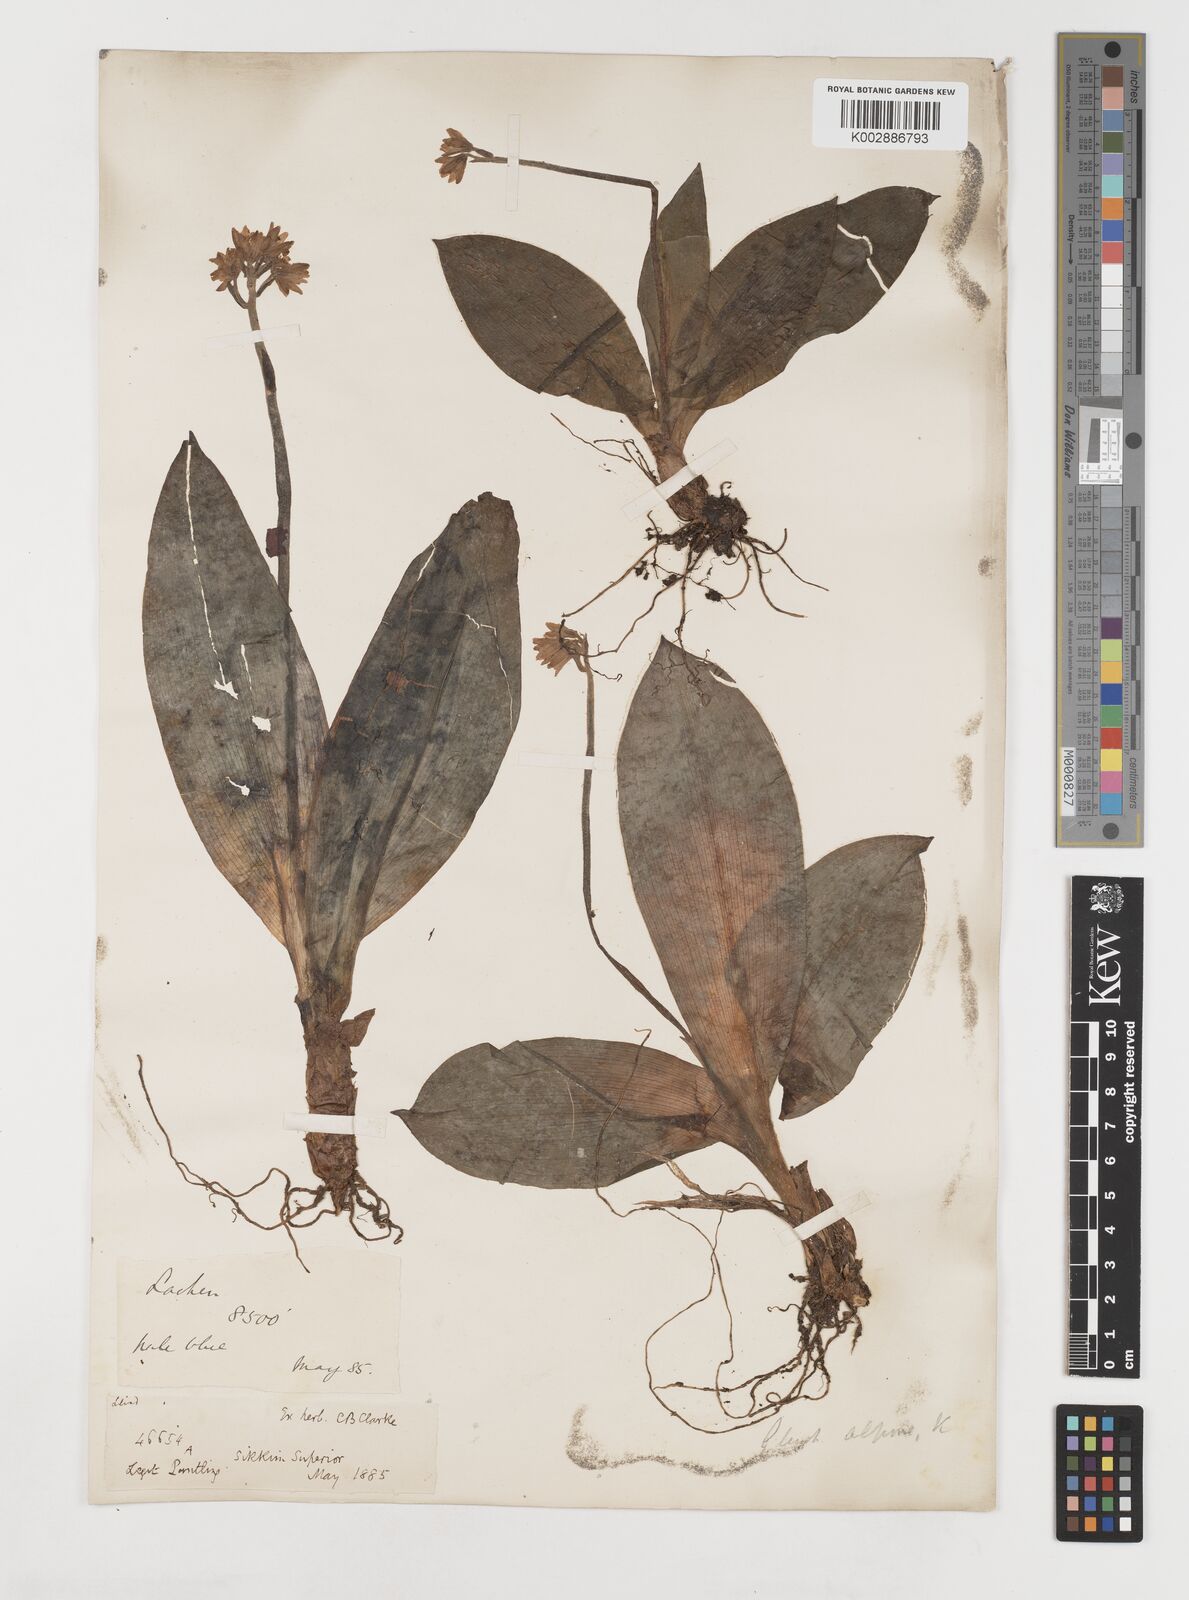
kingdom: Plantae
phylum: Tracheophyta
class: Liliopsida
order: Liliales
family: Liliaceae
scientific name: Liliaceae
